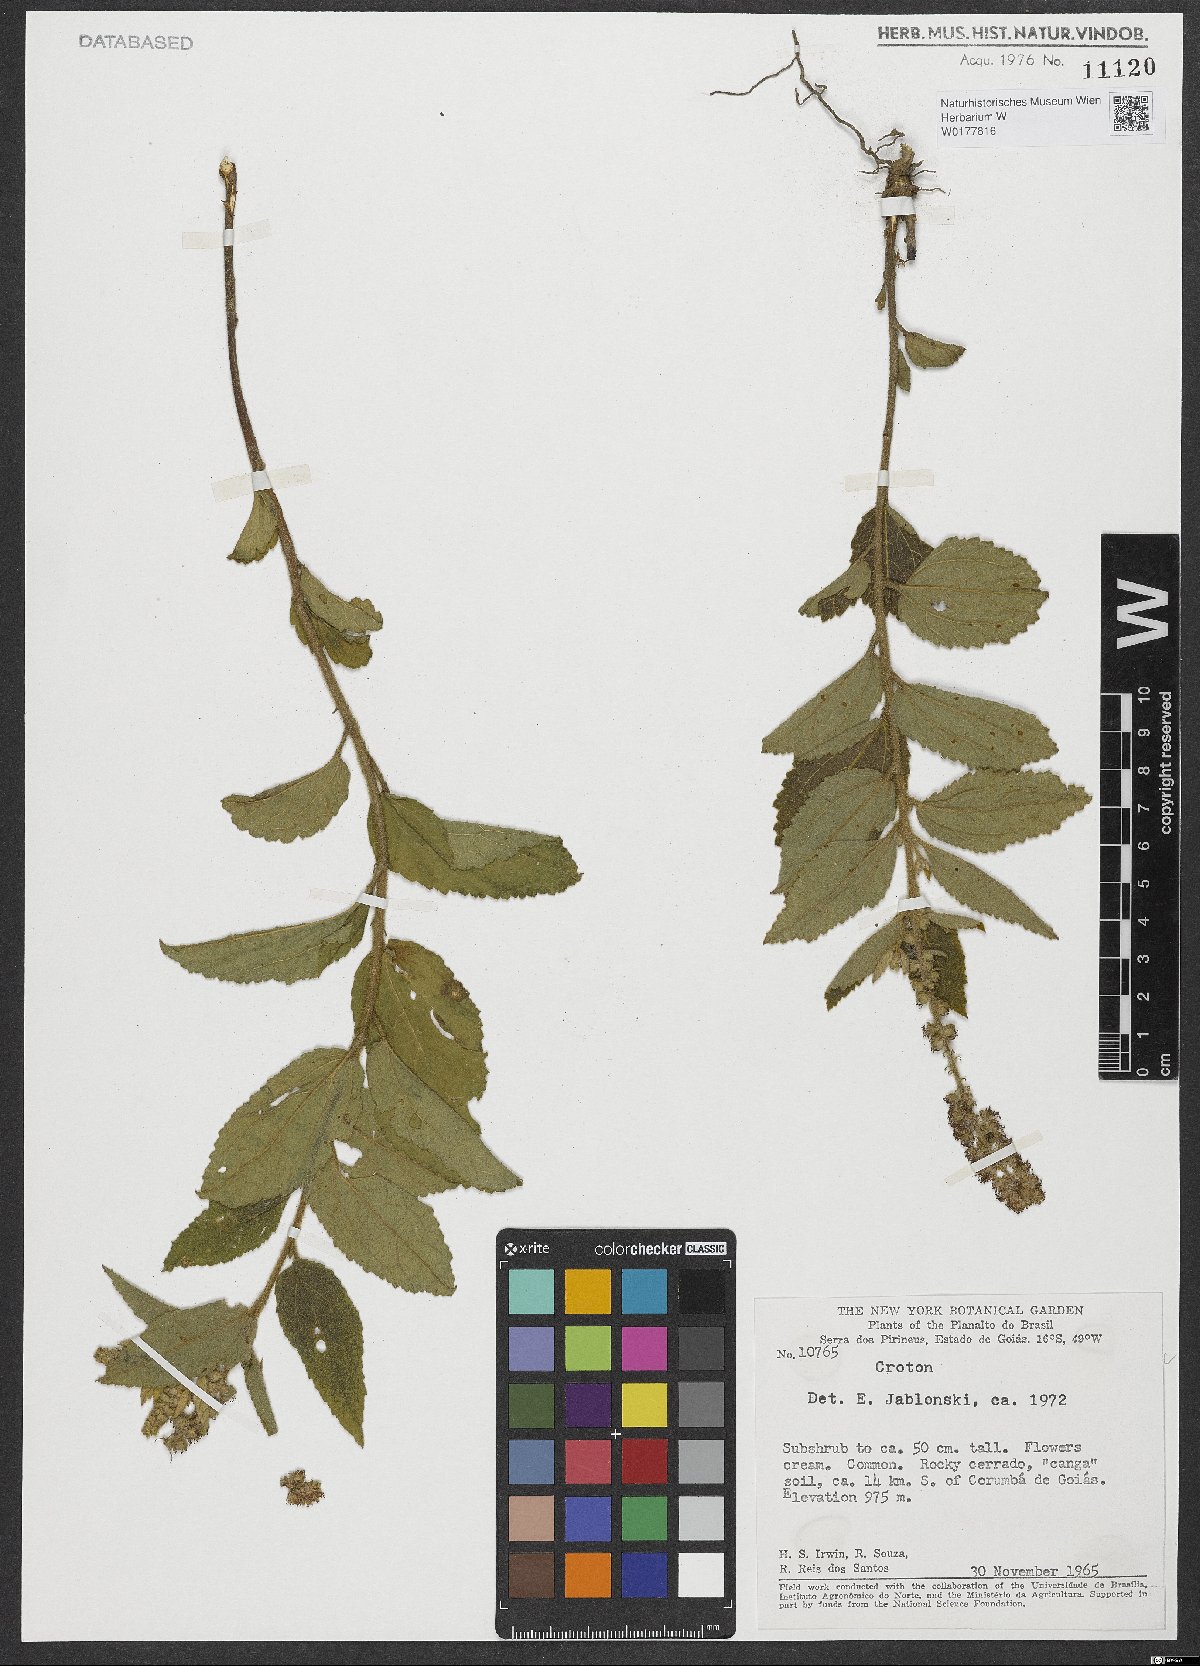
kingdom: Plantae
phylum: Tracheophyta
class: Magnoliopsida
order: Malpighiales
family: Euphorbiaceae
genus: Croton
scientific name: Croton
